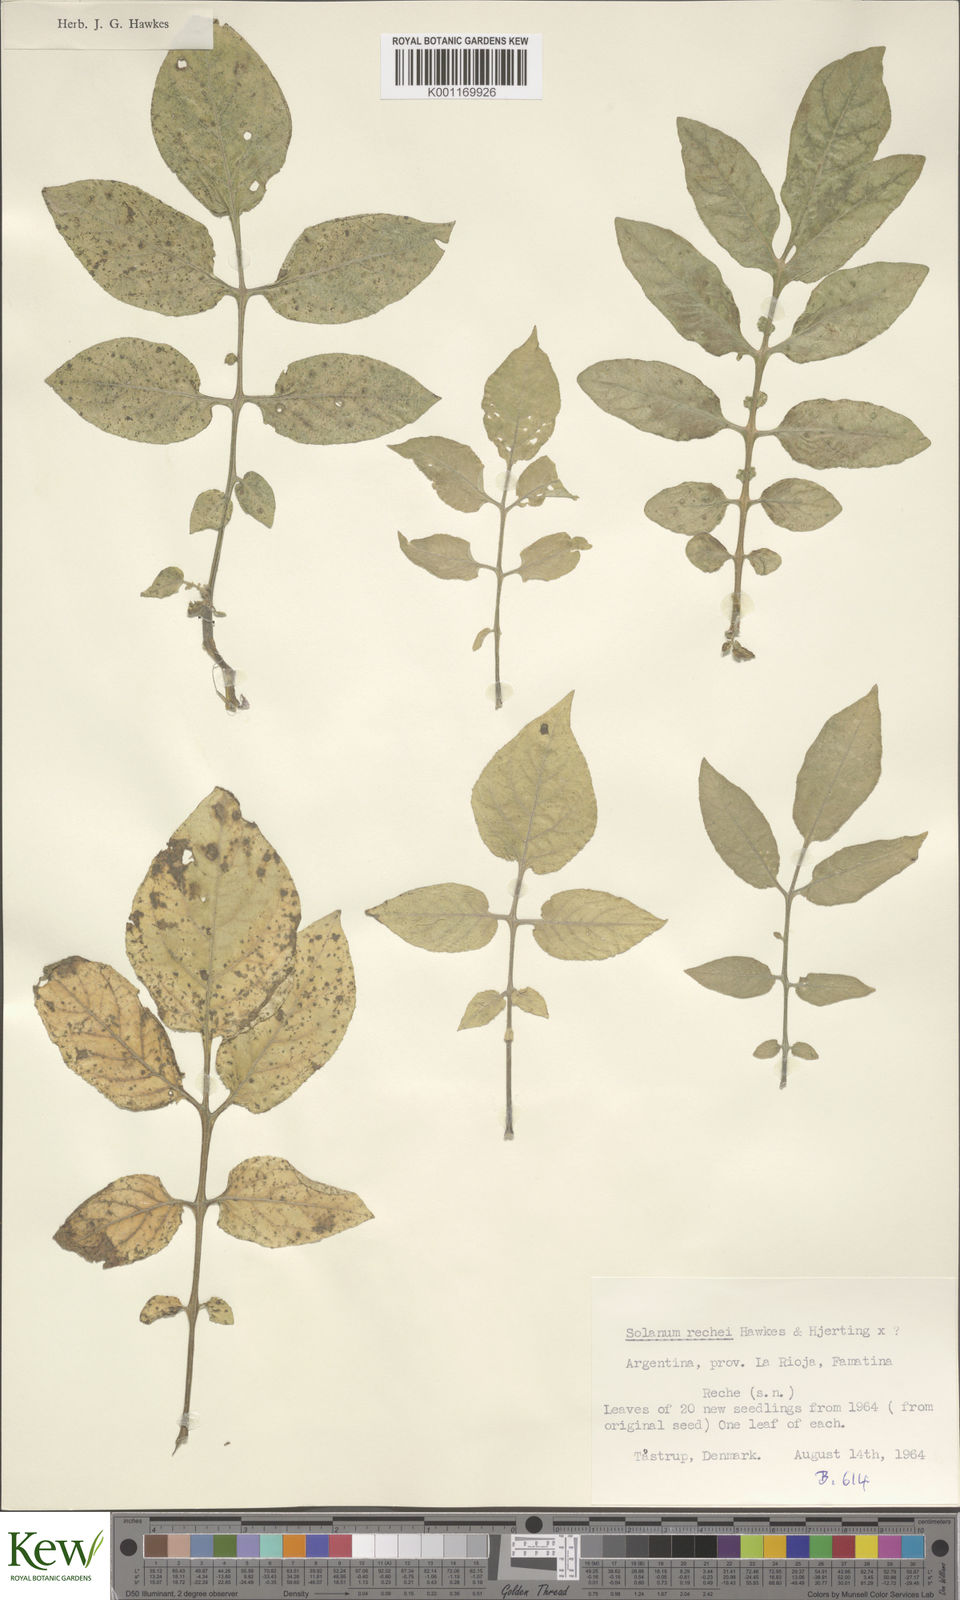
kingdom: Plantae
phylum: Tracheophyta
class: Magnoliopsida
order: Solanales
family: Solanaceae
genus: Solanum
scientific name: Solanum rechei
